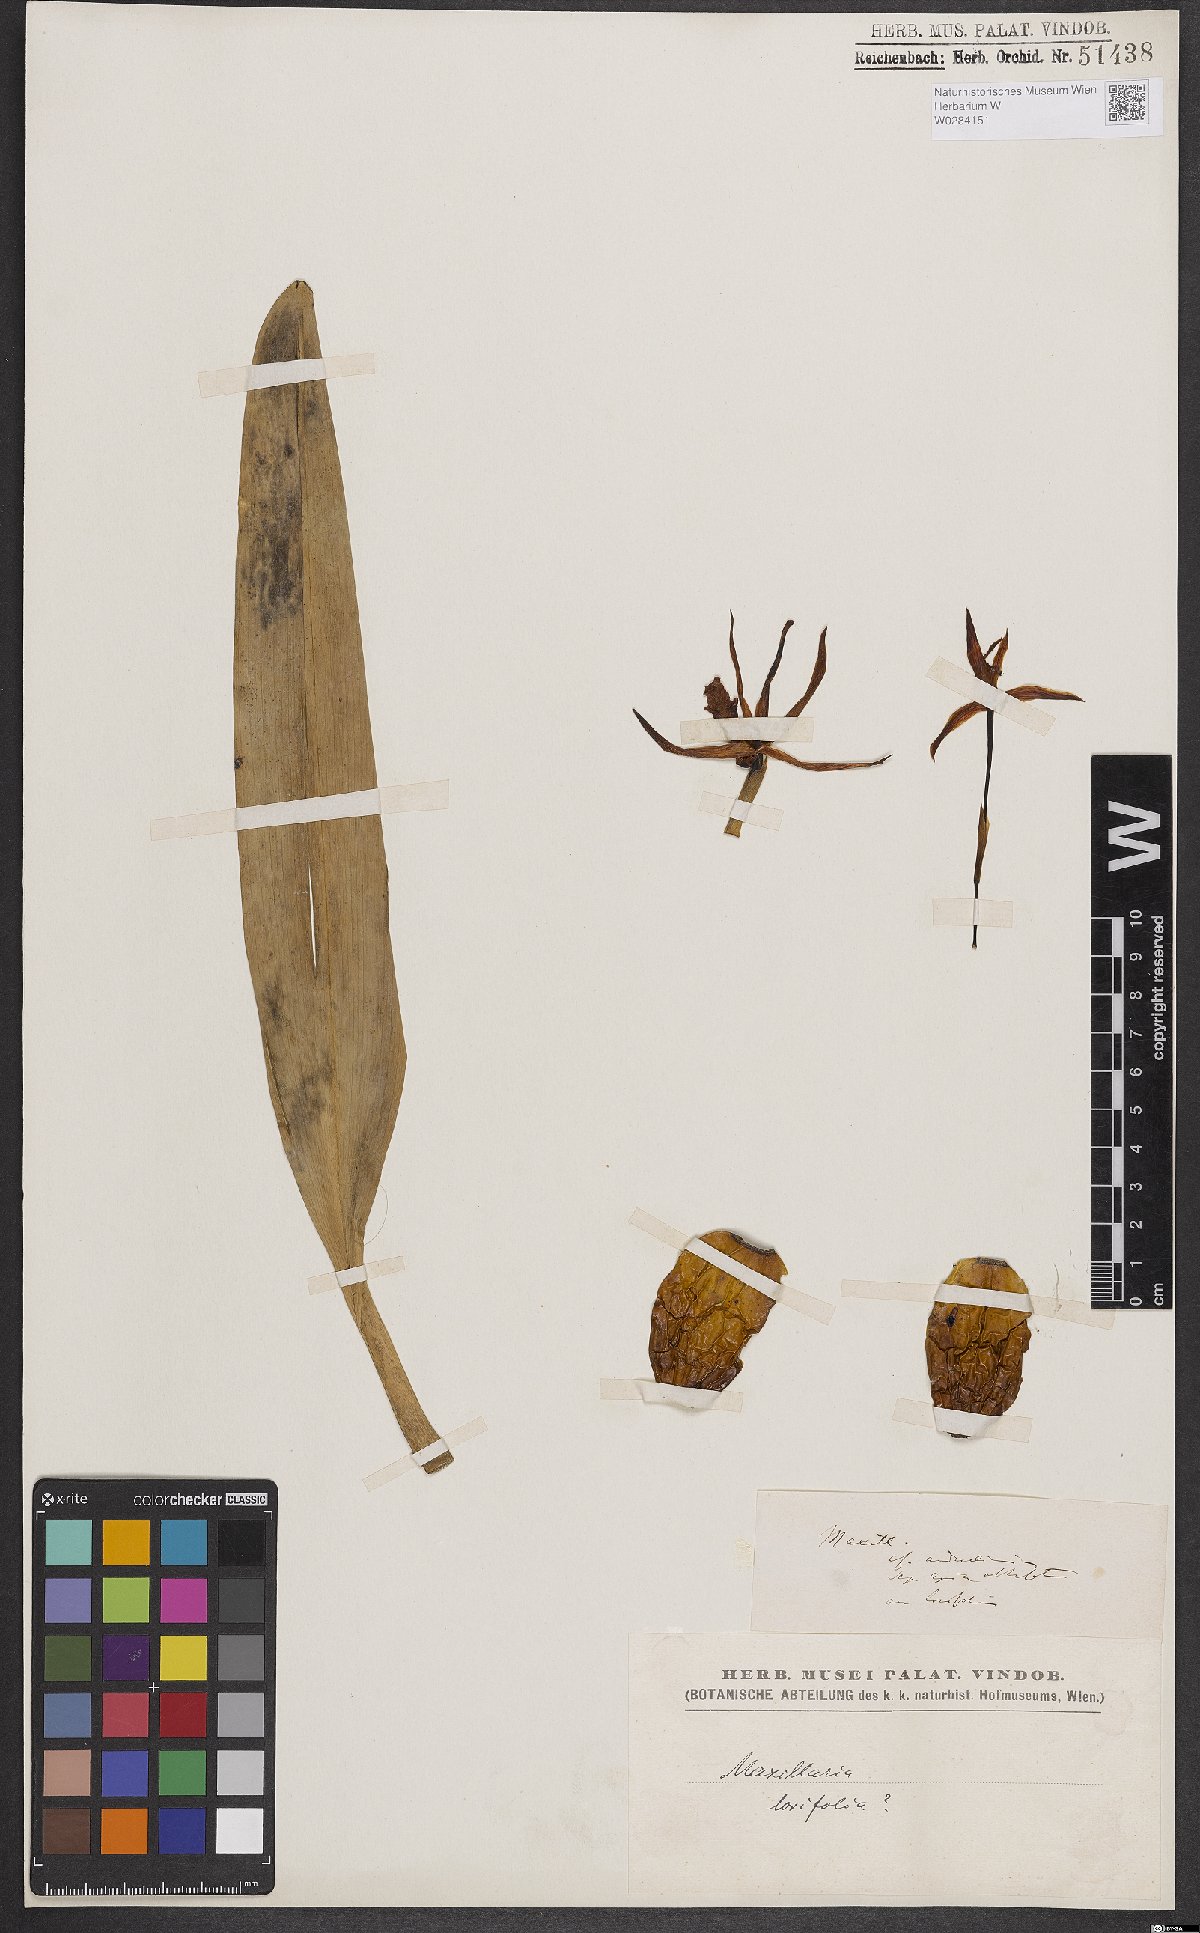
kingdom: Plantae
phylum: Tracheophyta
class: Liliopsida
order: Asparagales
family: Orchidaceae
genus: Maxillaria
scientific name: Maxillaria parkeri
